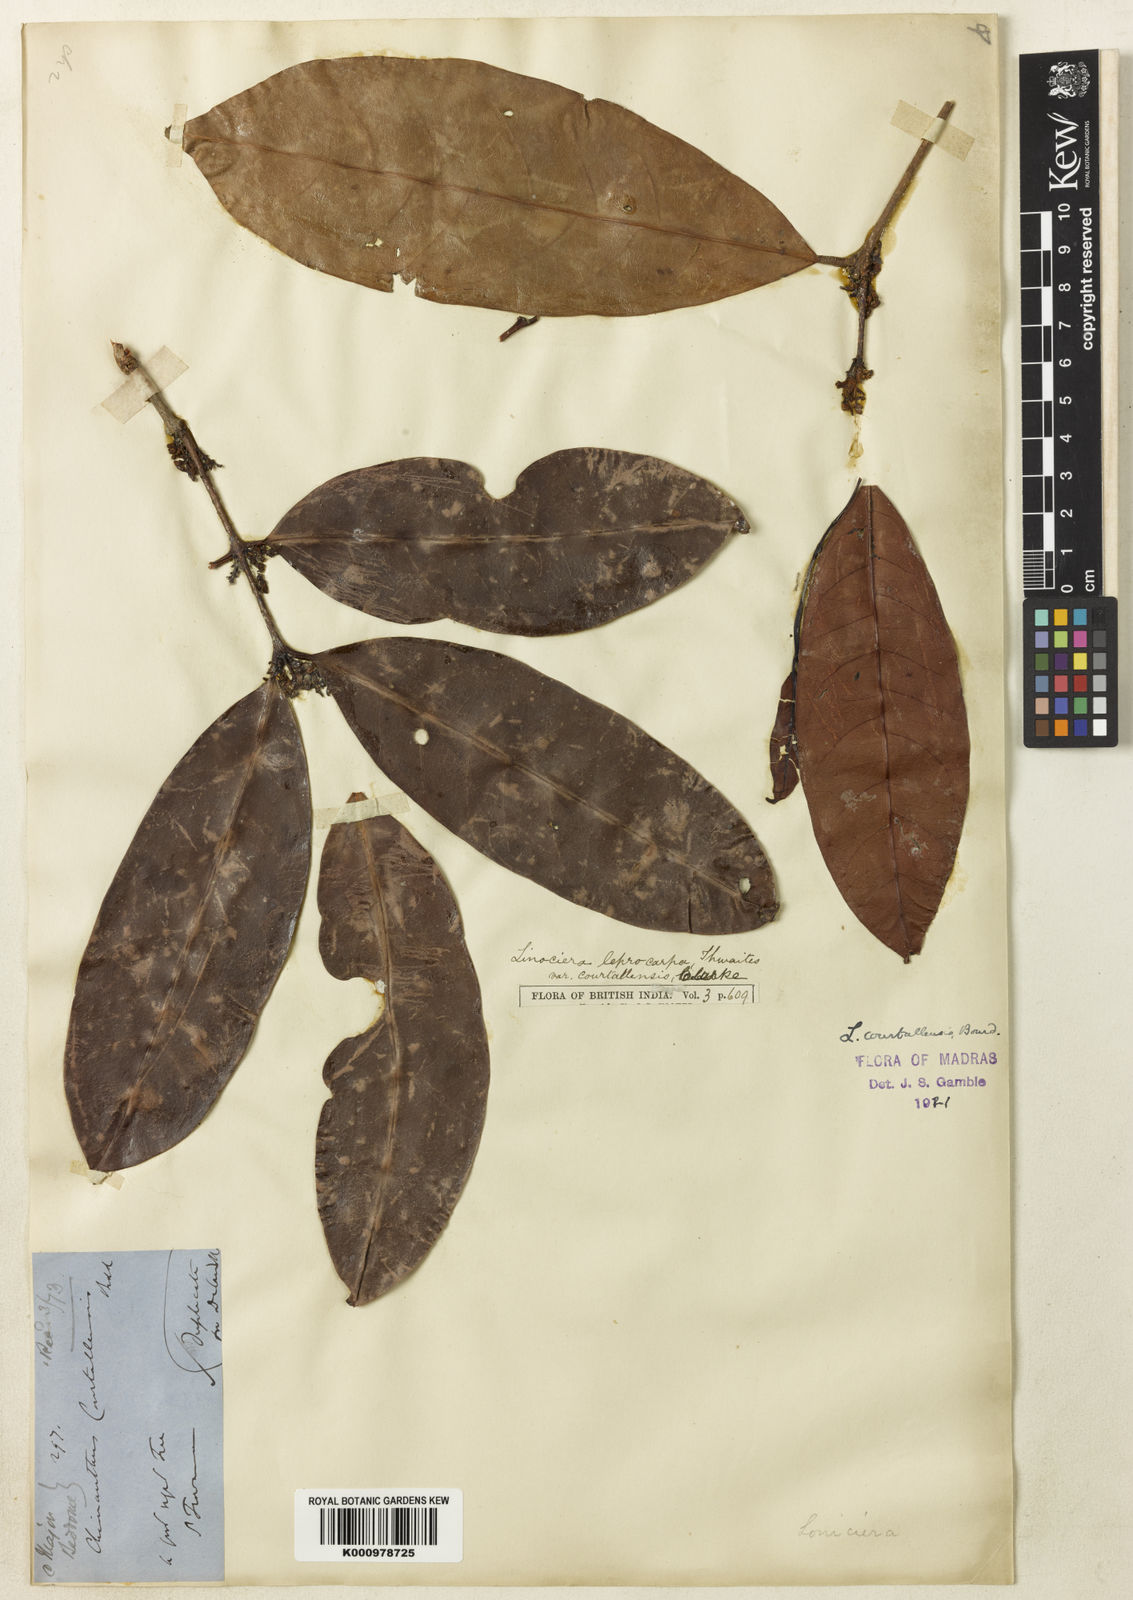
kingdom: Plantae
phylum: Tracheophyta
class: Magnoliopsida
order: Lamiales
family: Oleaceae
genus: Chionanthus
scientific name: Chionanthus courtallensis
